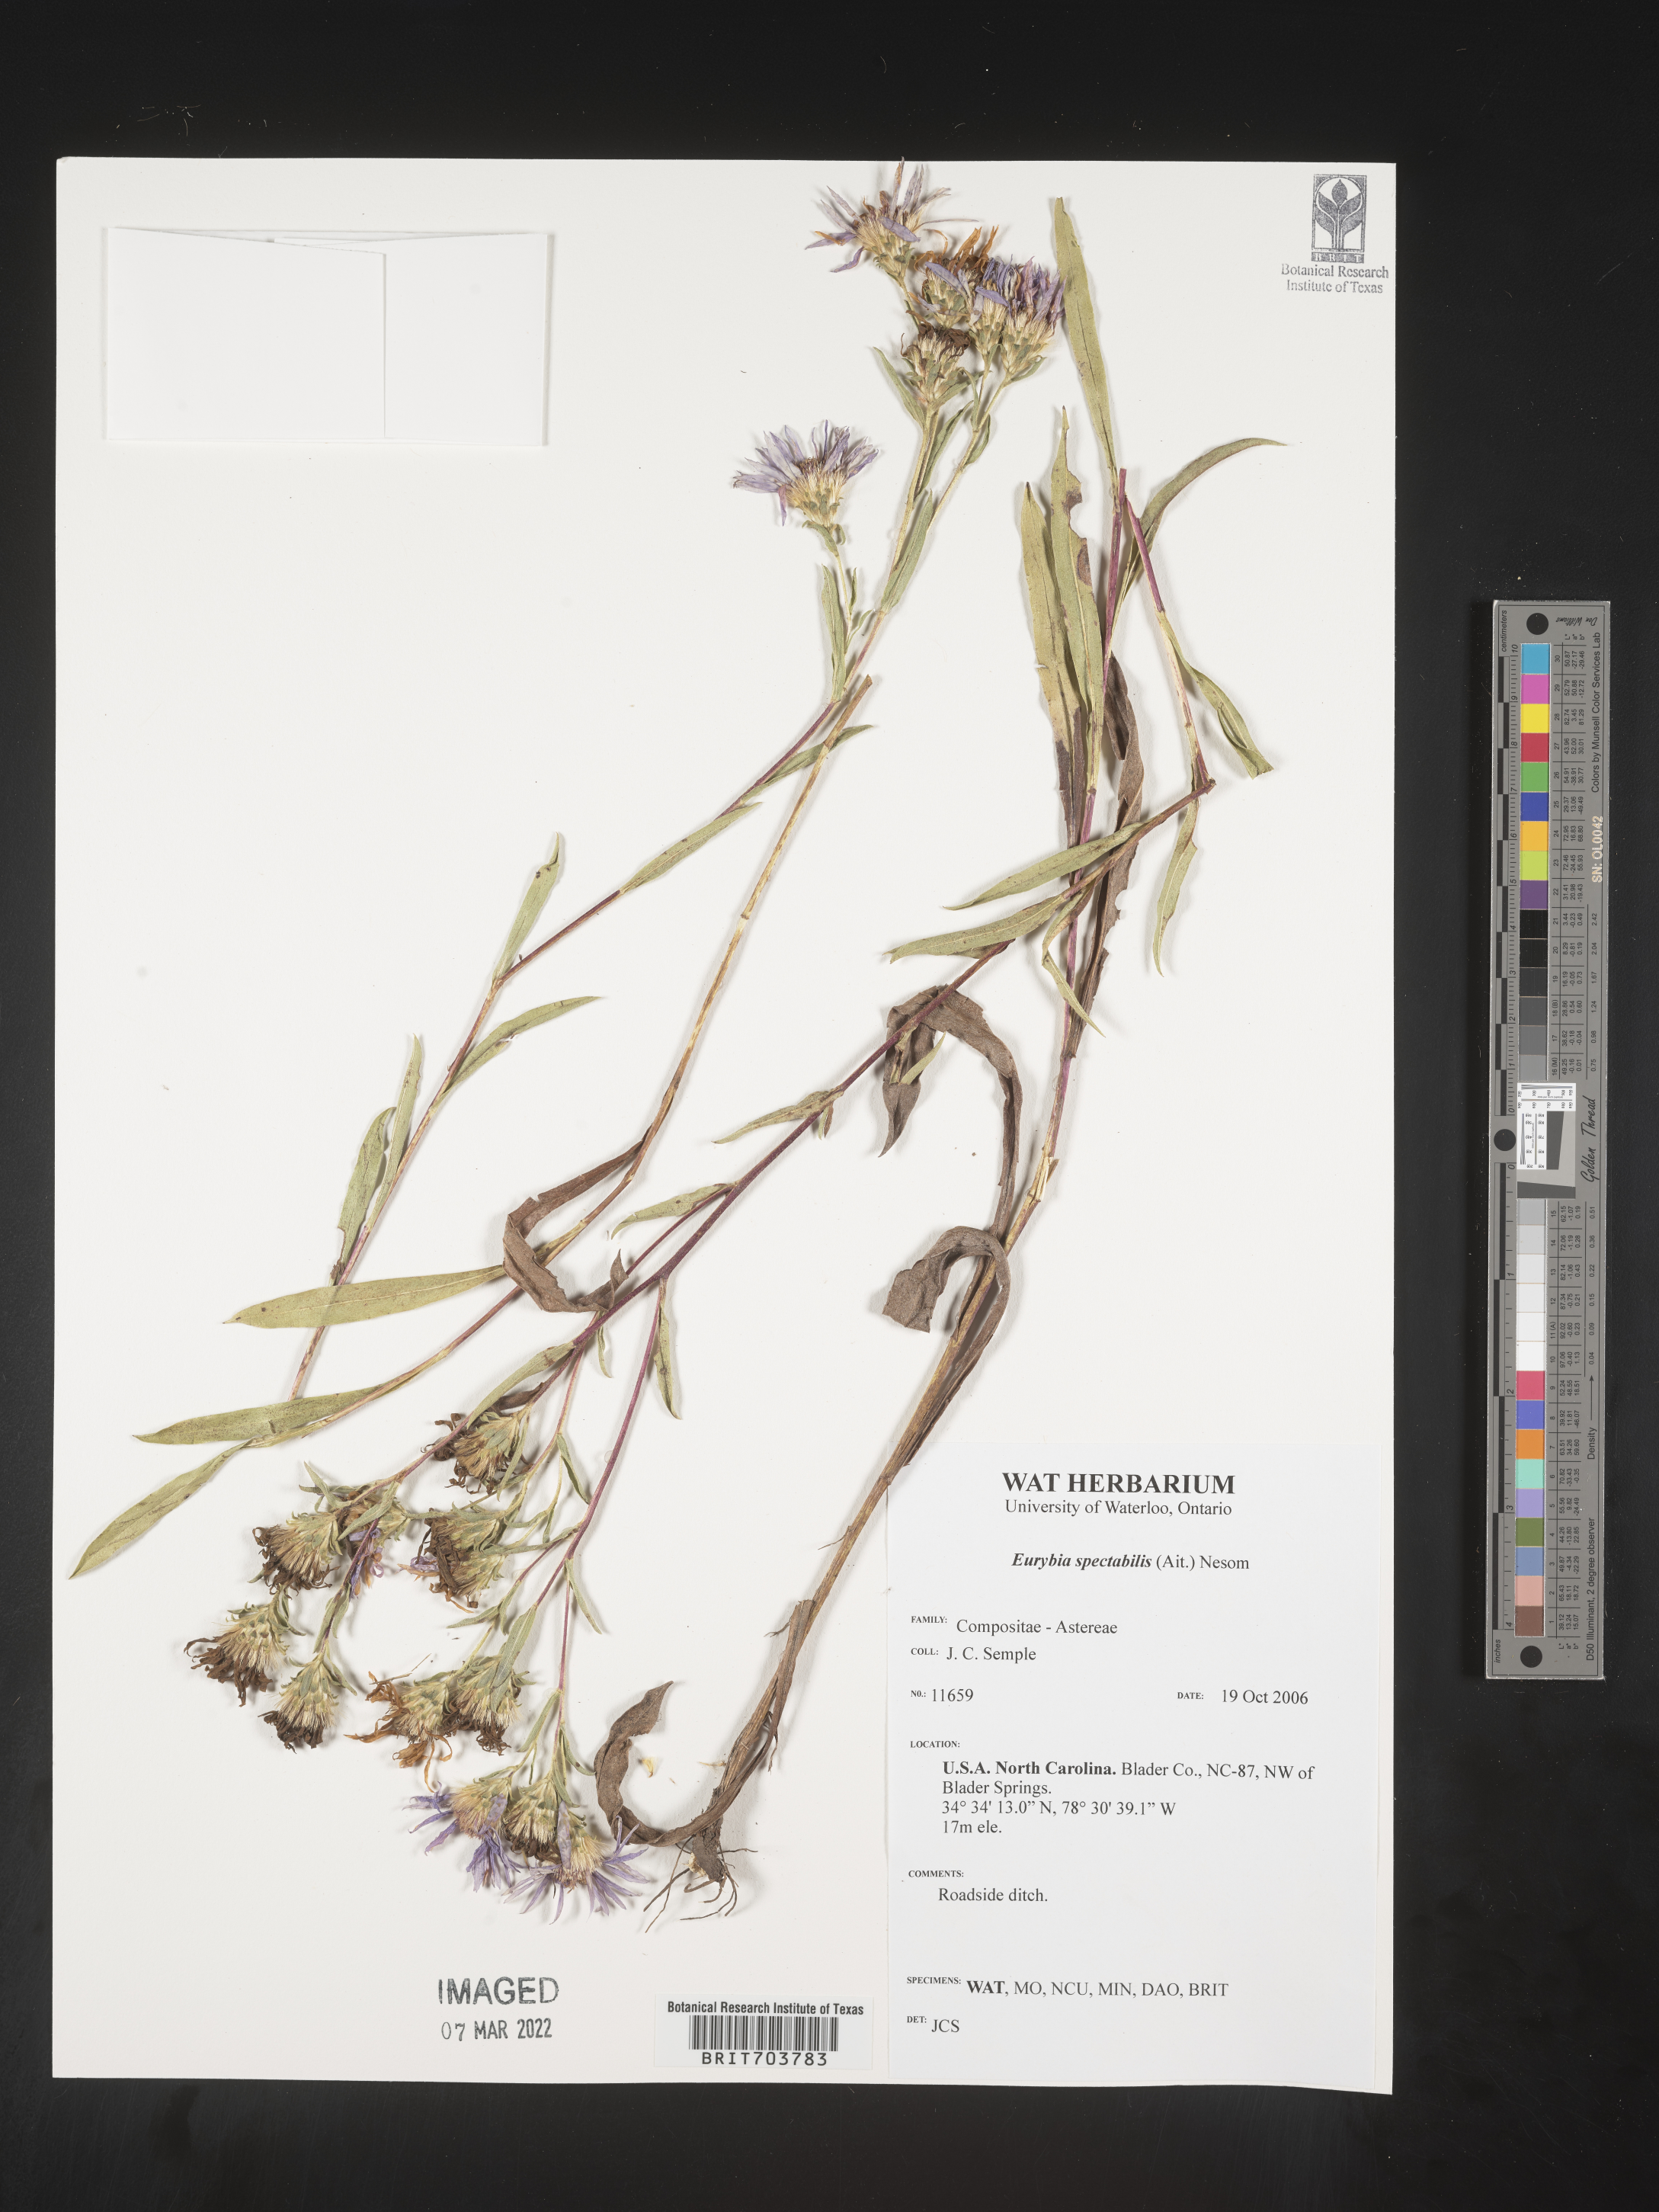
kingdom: Plantae
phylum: Tracheophyta
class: Magnoliopsida
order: Asterales
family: Asteraceae
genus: Eurybia
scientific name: Eurybia spectabilis
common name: Low showy aster
